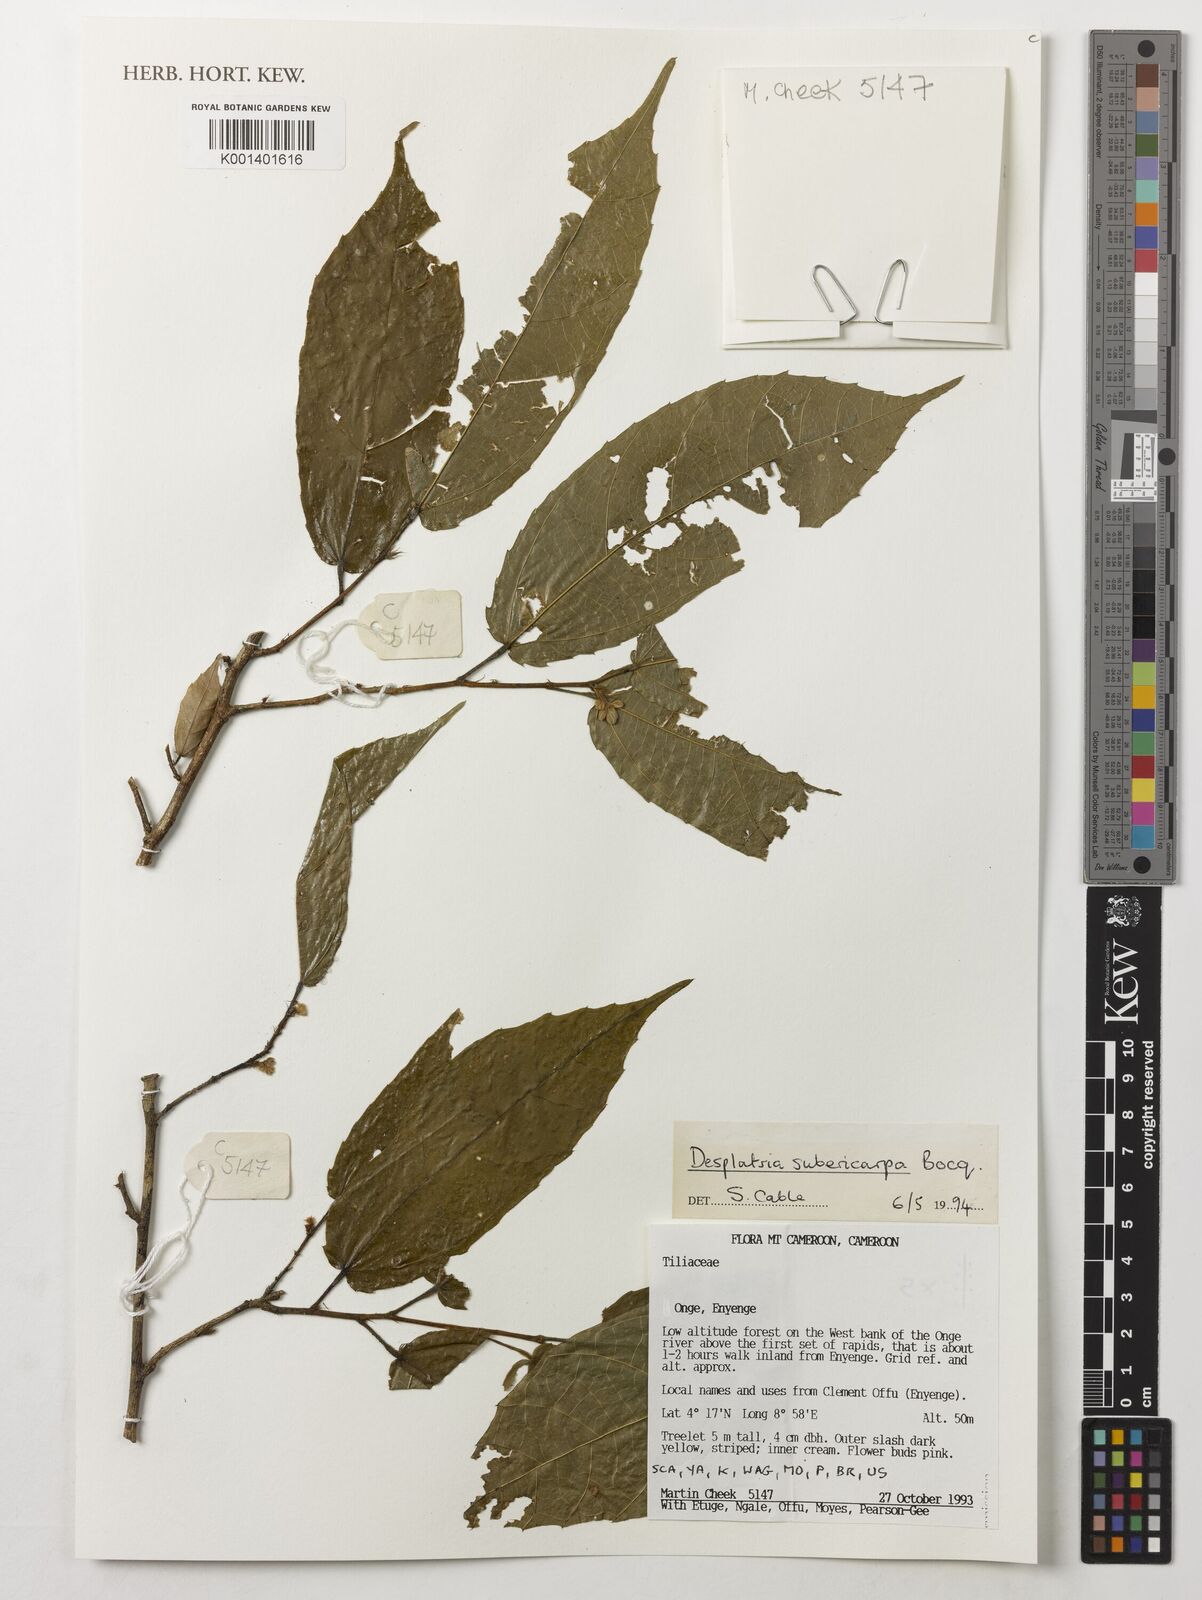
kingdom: Plantae
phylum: Tracheophyta
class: Magnoliopsida
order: Malvales
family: Malvaceae
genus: Desplatsia
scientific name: Desplatsia subericarpa
